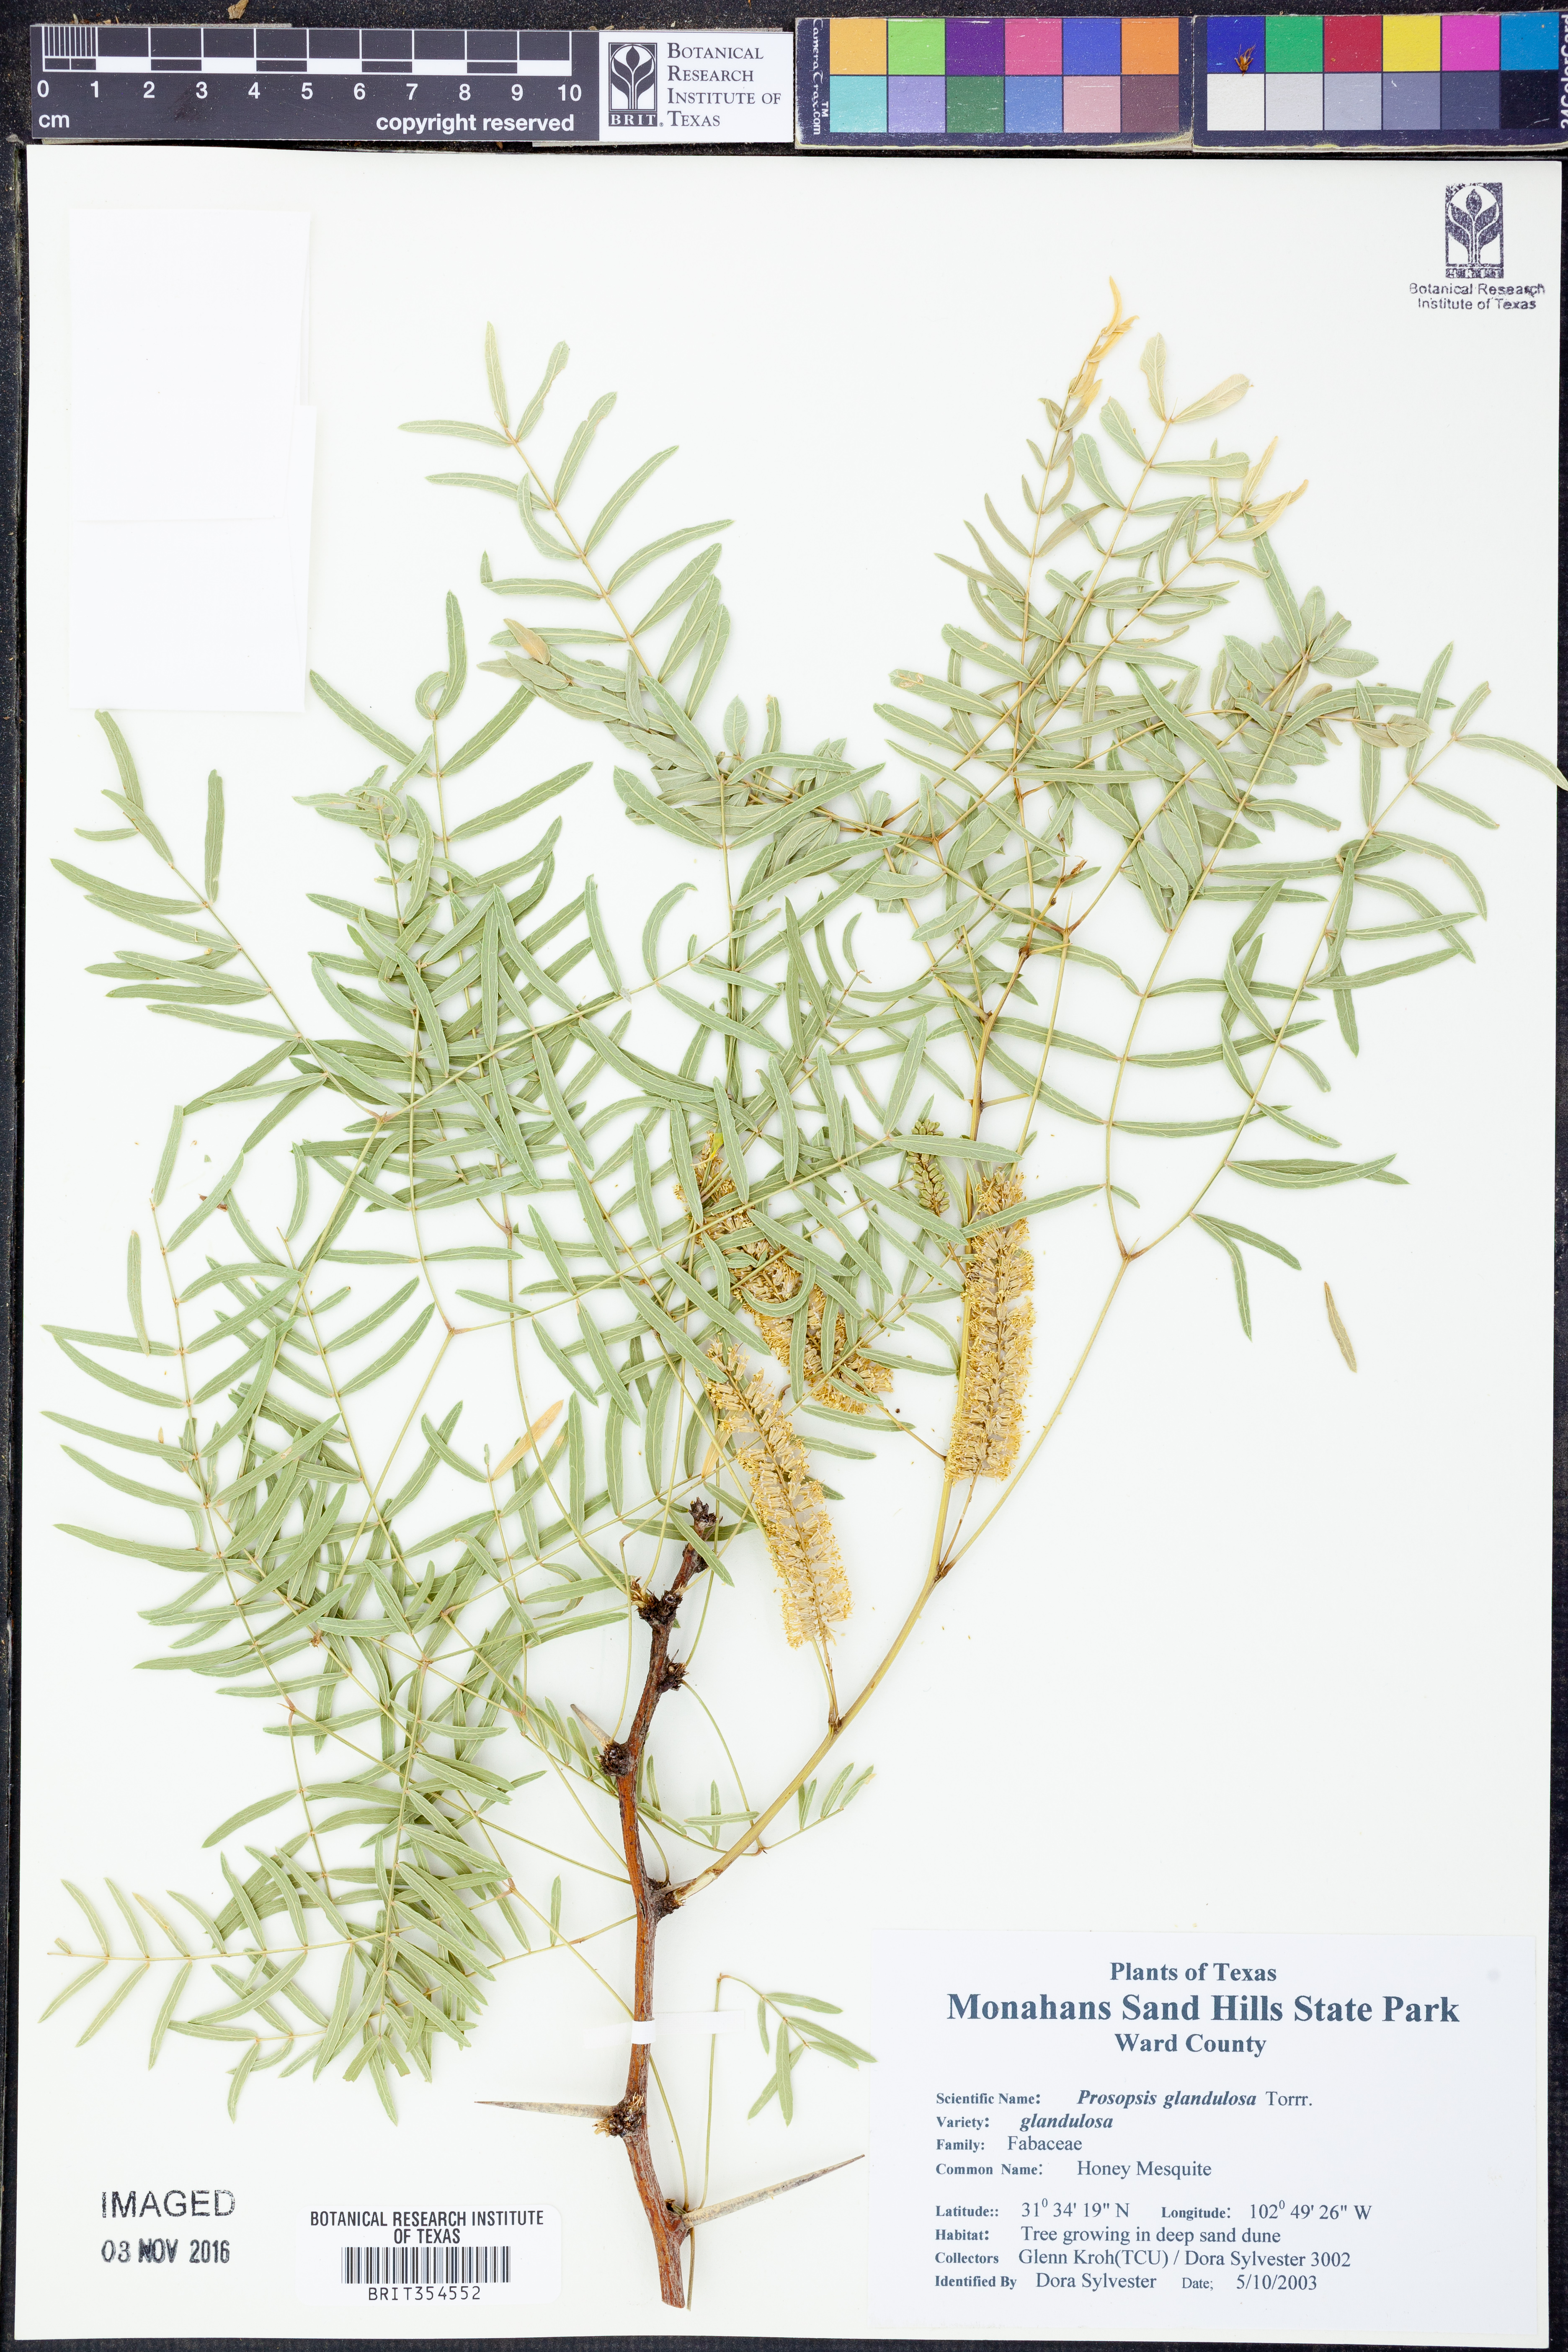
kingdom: Plantae
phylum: Tracheophyta
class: Magnoliopsida
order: Fabales
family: Fabaceae
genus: Prosopis
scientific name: Prosopis glandulosa
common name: Honey mesquite
